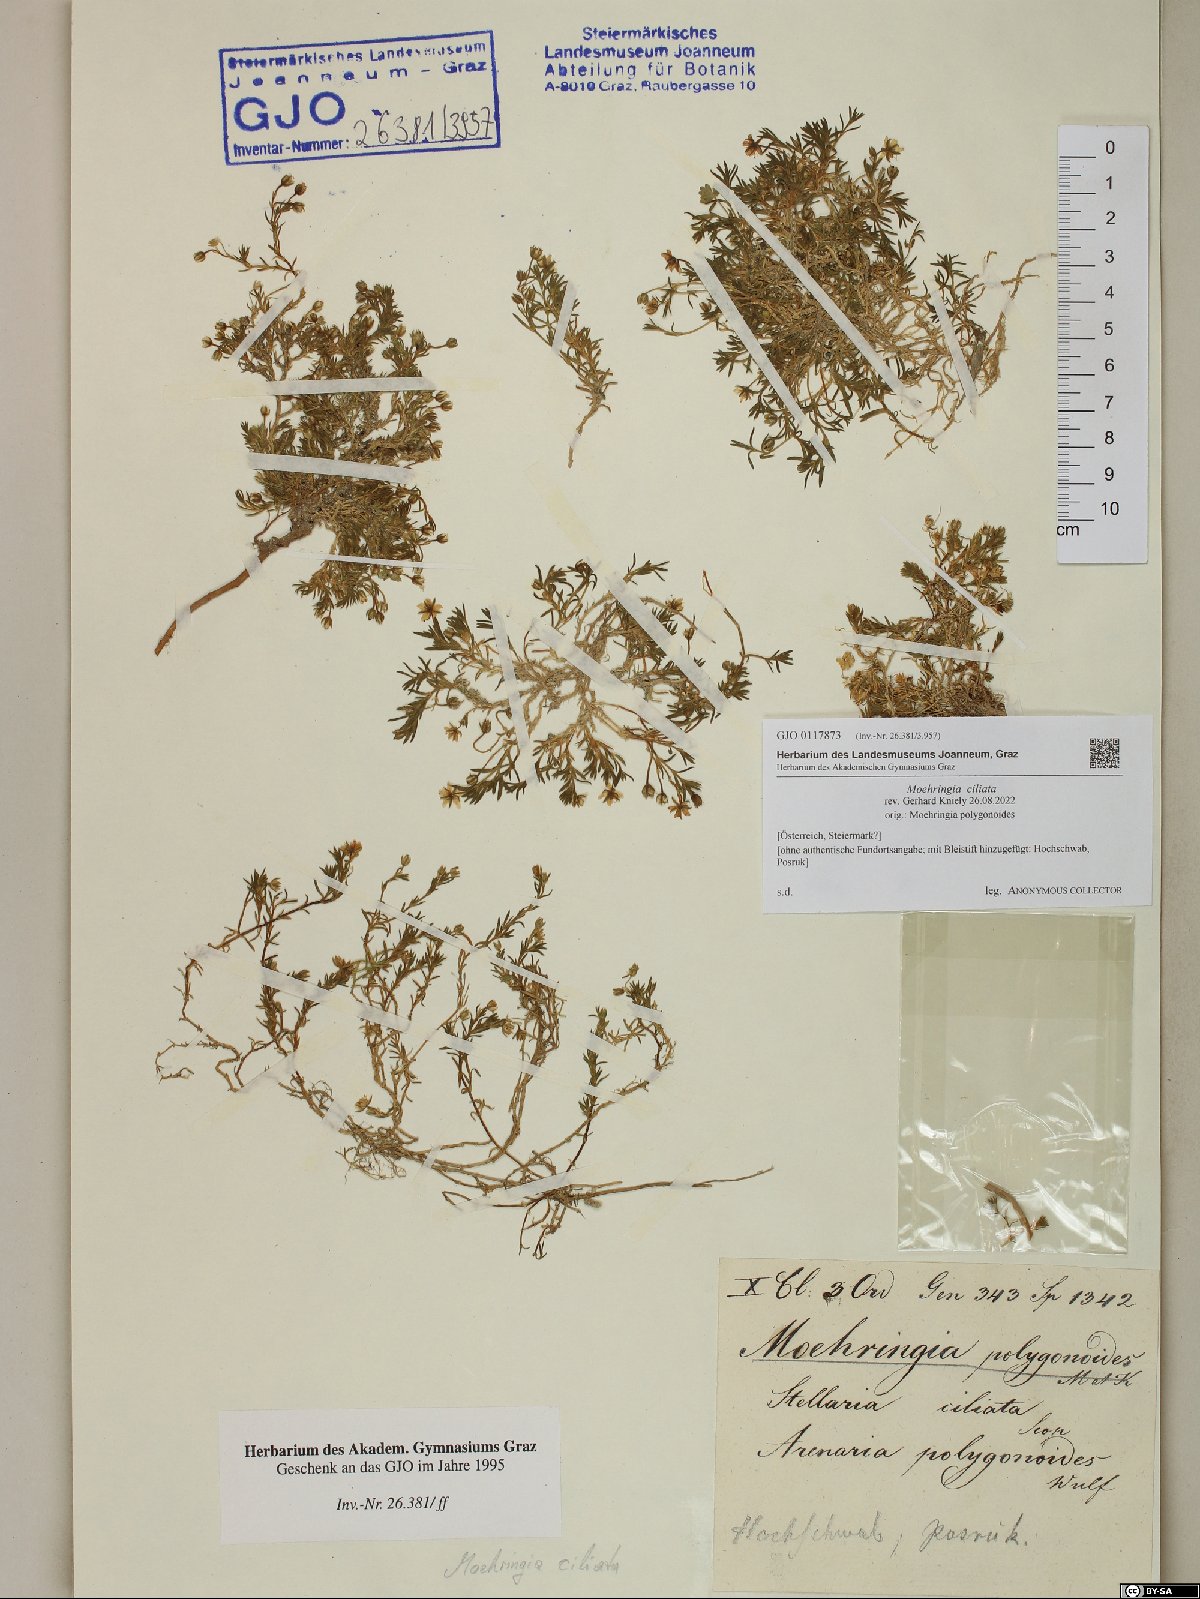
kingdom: Plantae
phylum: Tracheophyta
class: Magnoliopsida
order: Caryophyllales
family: Caryophyllaceae
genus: Moehringia
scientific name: Moehringia ciliata
